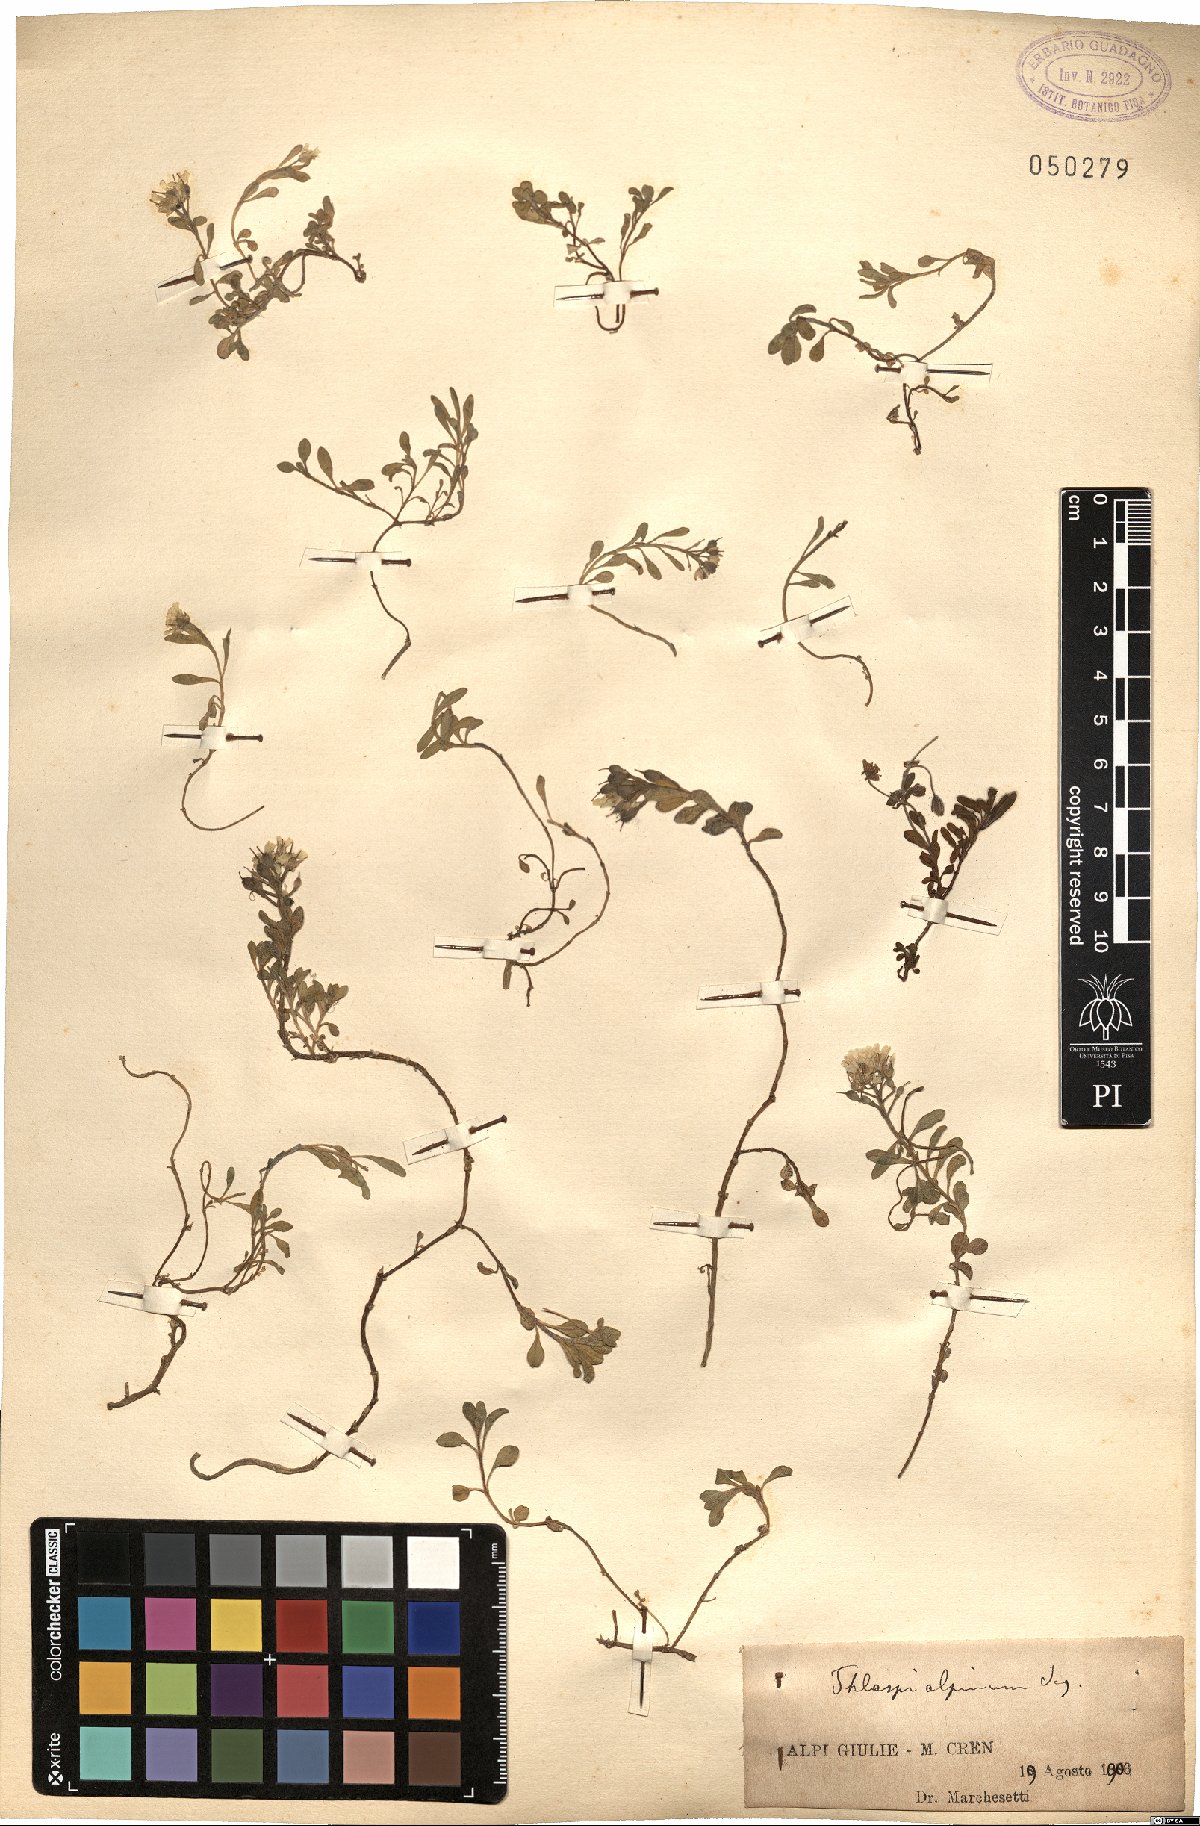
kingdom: Plantae
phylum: Tracheophyta
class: Magnoliopsida
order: Brassicales
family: Brassicaceae
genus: Noccaea
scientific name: Noccaea alpestris
